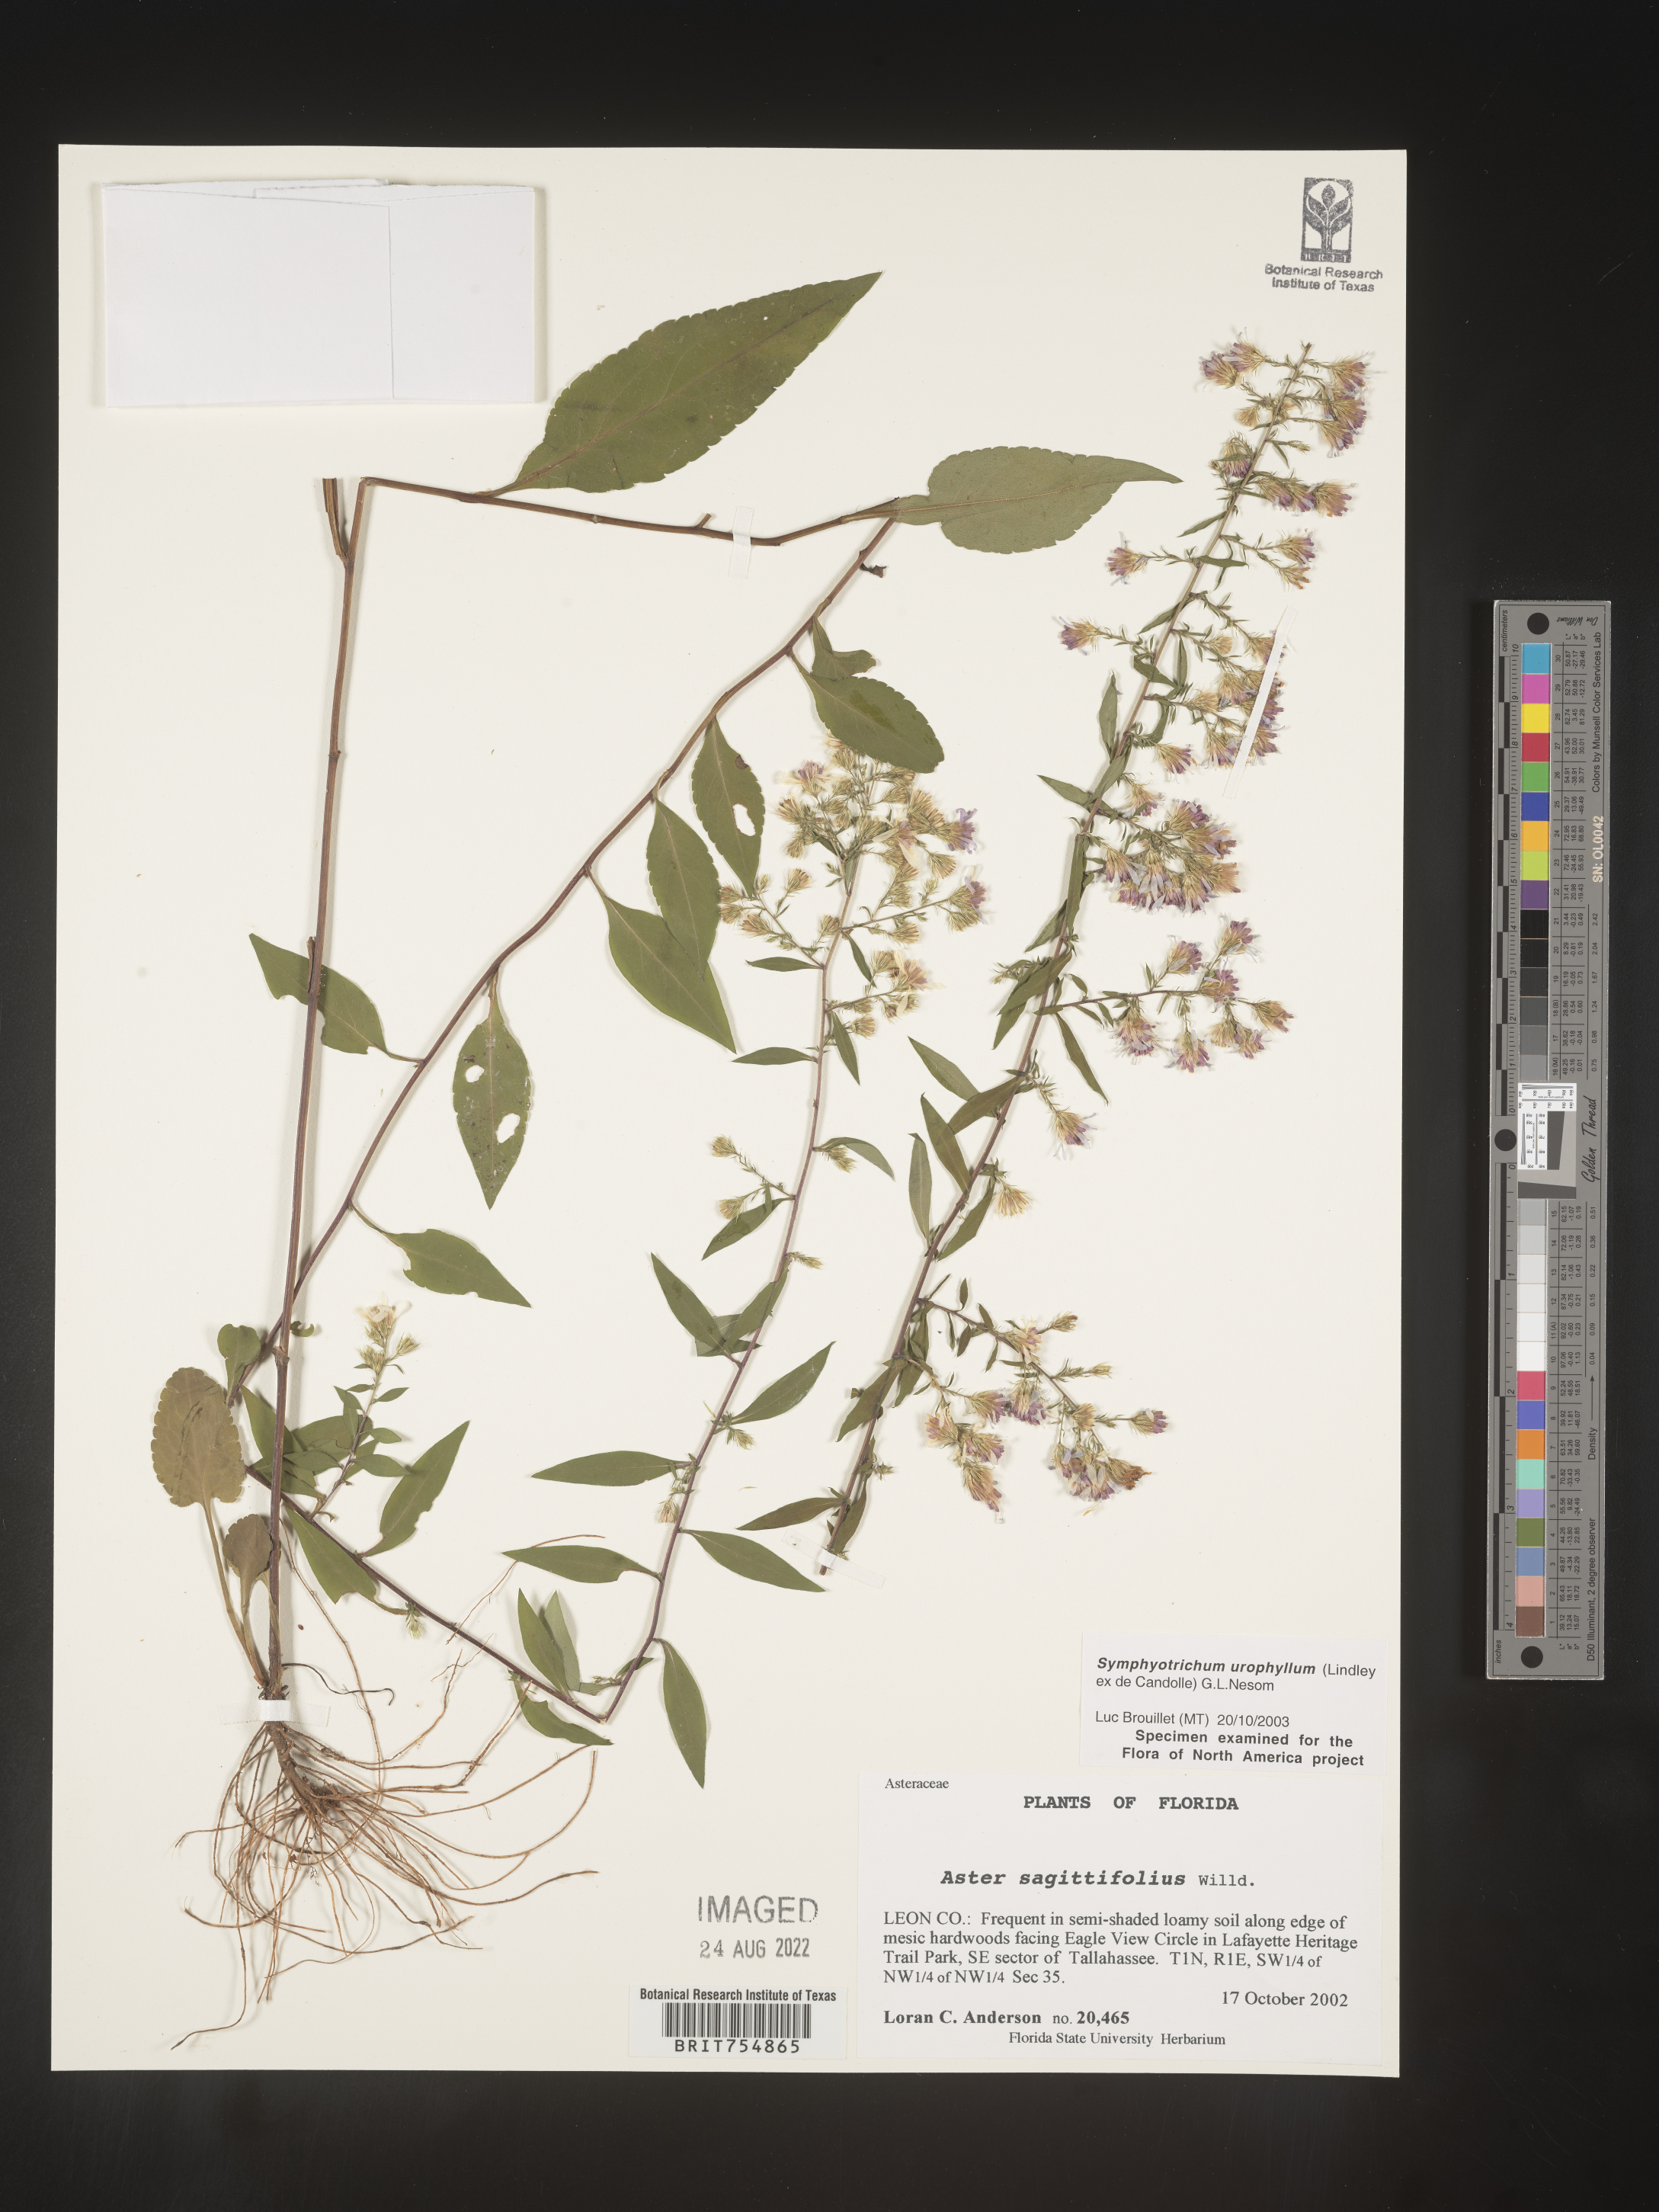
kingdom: Plantae
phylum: Tracheophyta
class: Magnoliopsida
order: Asterales
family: Asteraceae
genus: Symphyotrichum
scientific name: Symphyotrichum urophyllum
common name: Arrow-leaved aster
